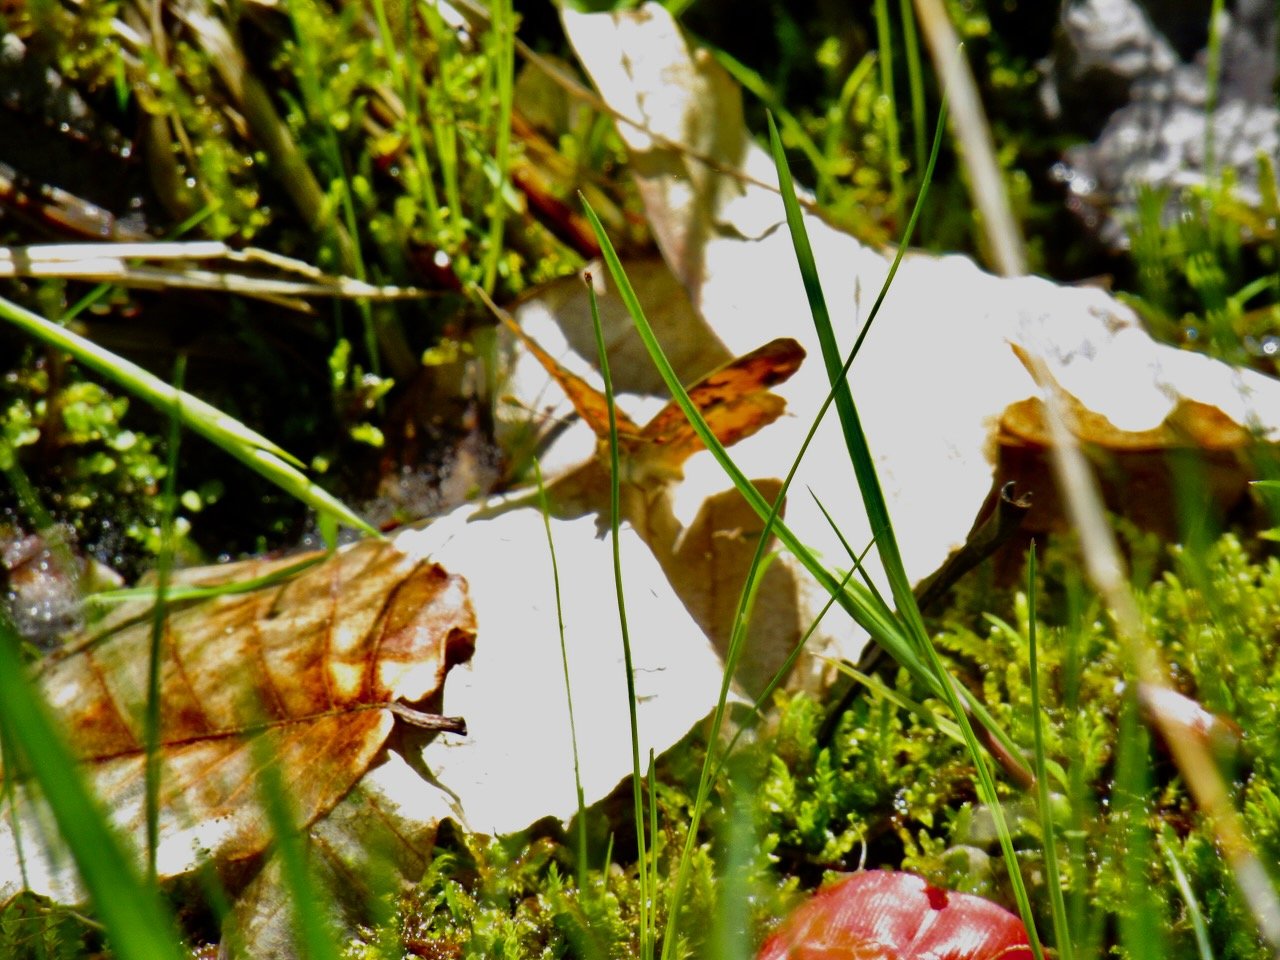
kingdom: Animalia
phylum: Arthropoda
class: Insecta
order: Lepidoptera
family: Nymphalidae
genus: Phyciodes
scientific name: Phyciodes
